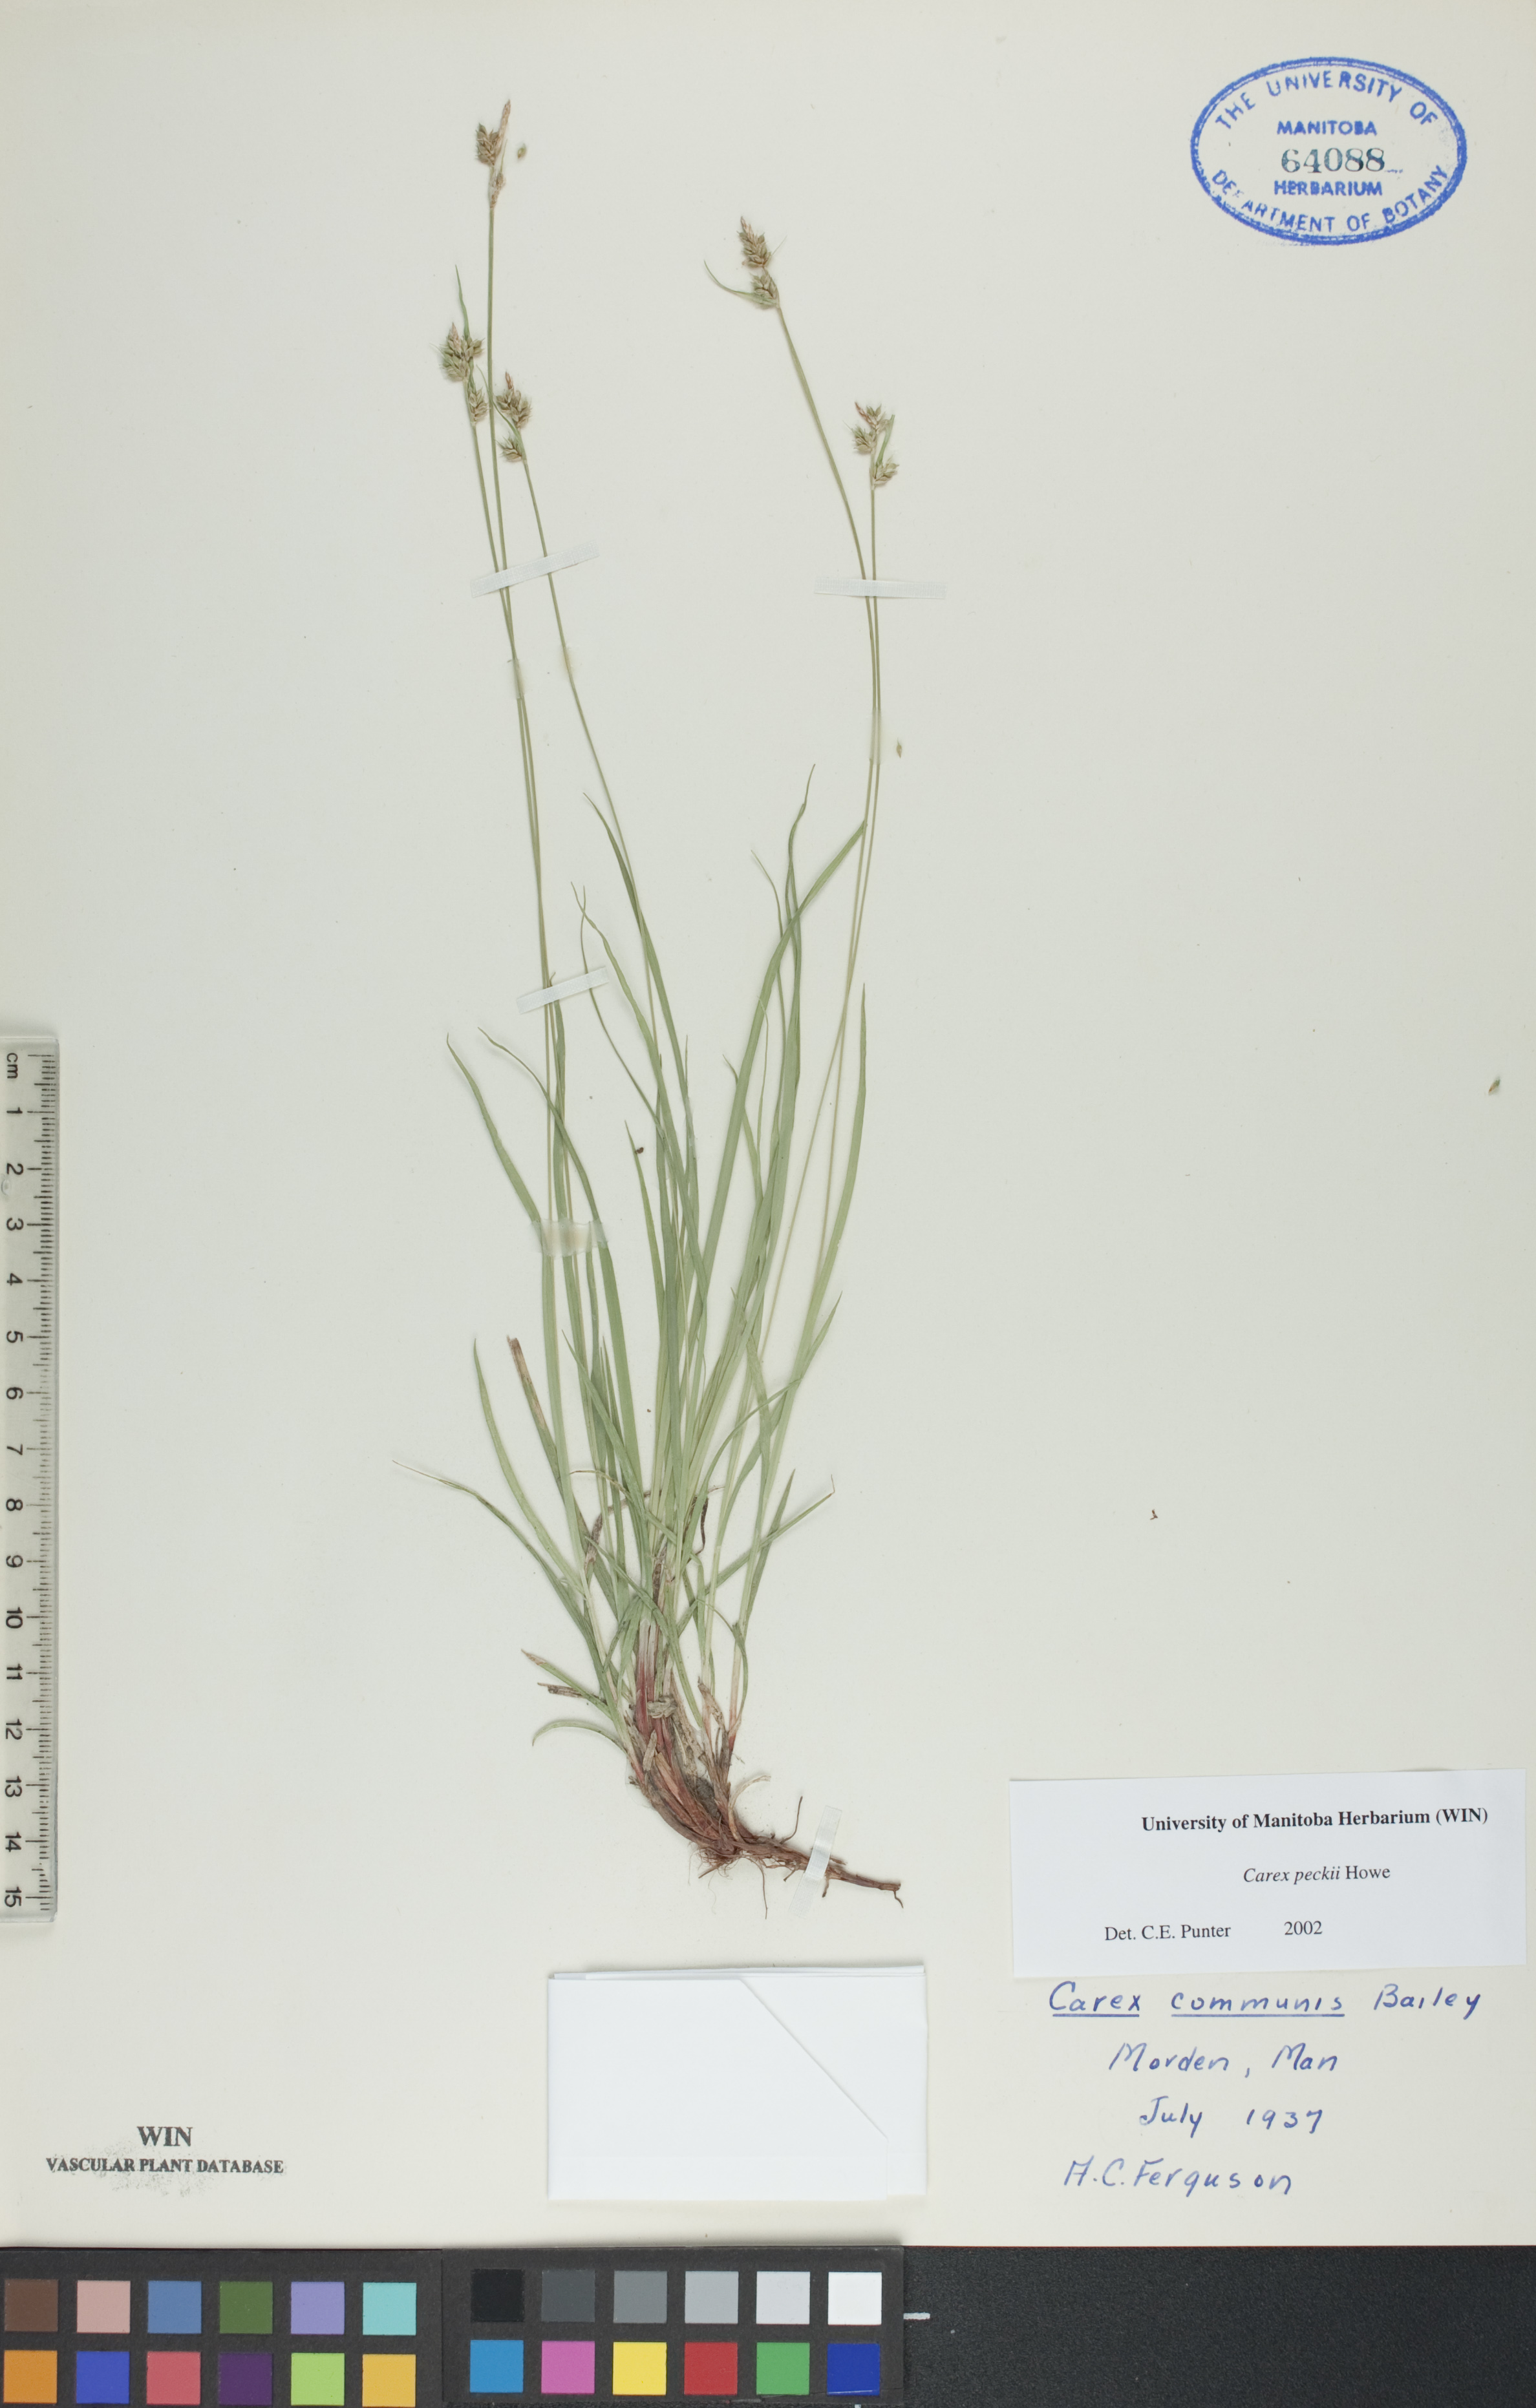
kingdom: Plantae
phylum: Tracheophyta
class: Liliopsida
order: Poales
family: Cyperaceae
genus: Carex
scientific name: Carex peckii
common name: Peck's oak sedge
